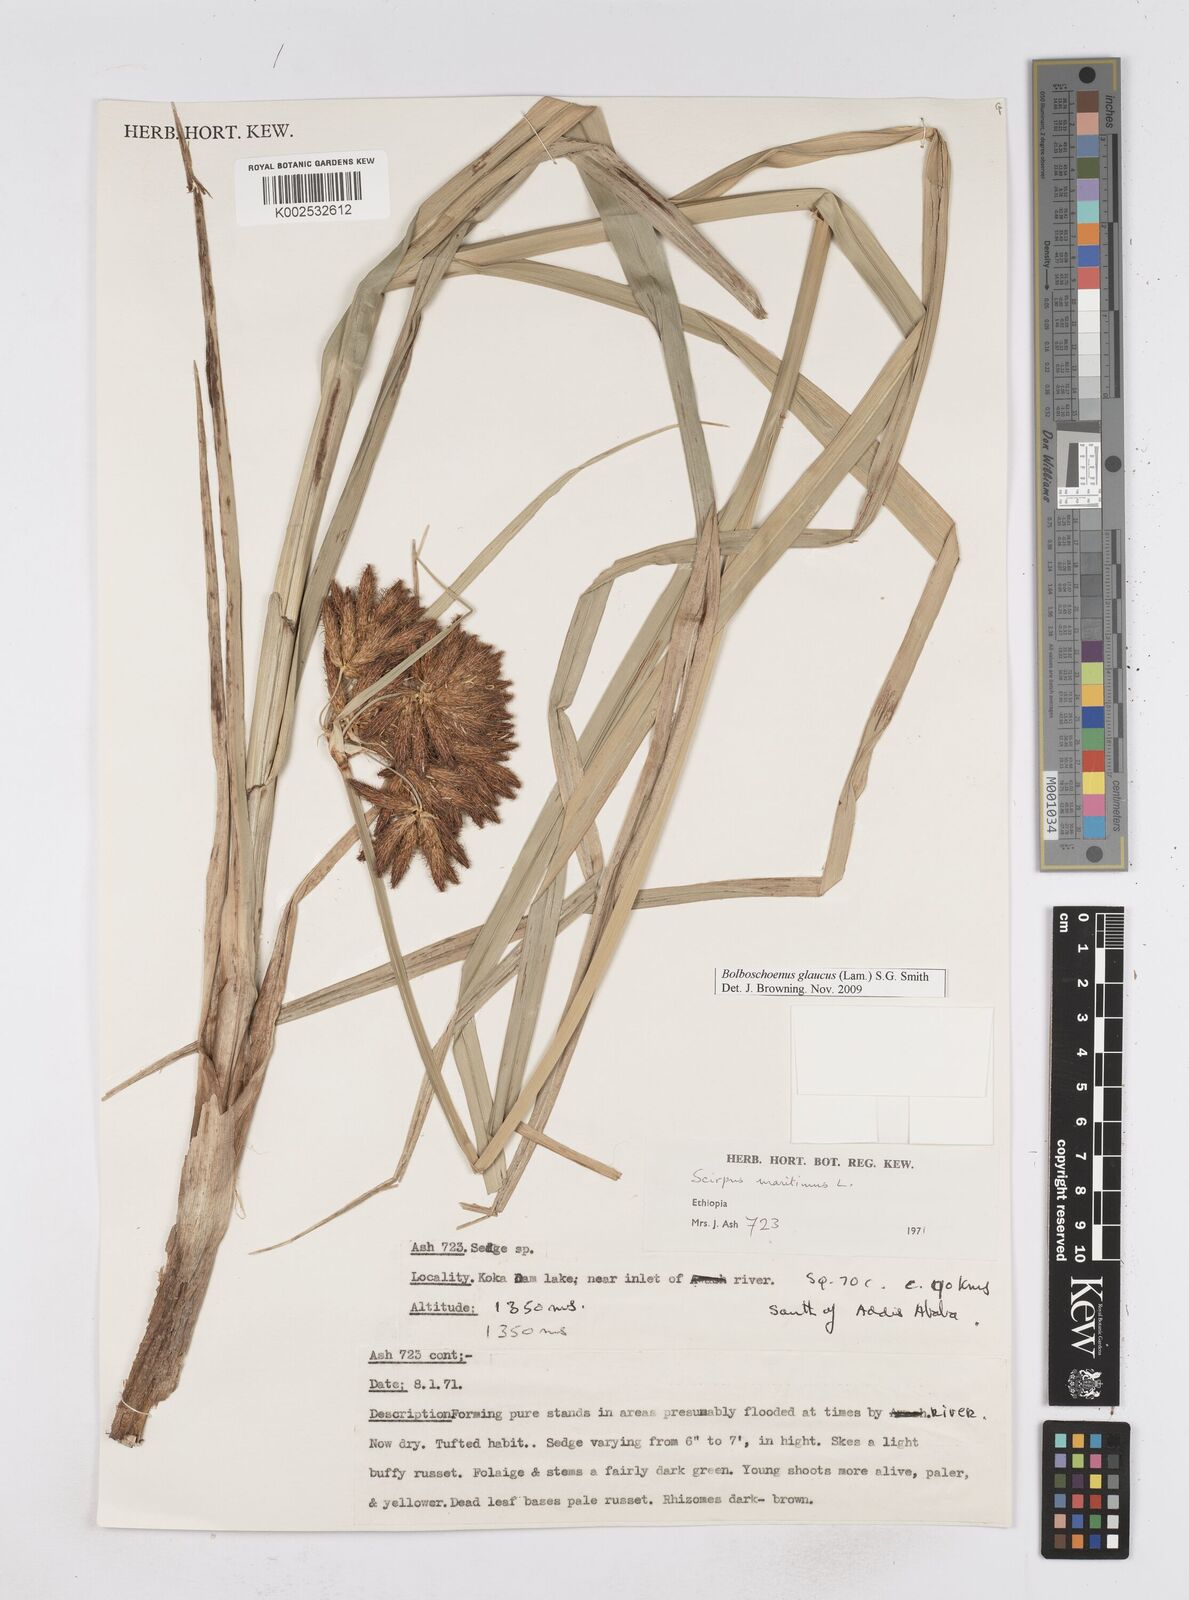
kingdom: Plantae
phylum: Tracheophyta
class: Liliopsida
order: Poales
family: Cyperaceae
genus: Bolboschoenus
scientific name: Bolboschoenus glaucus
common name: Tuberous bulrush
